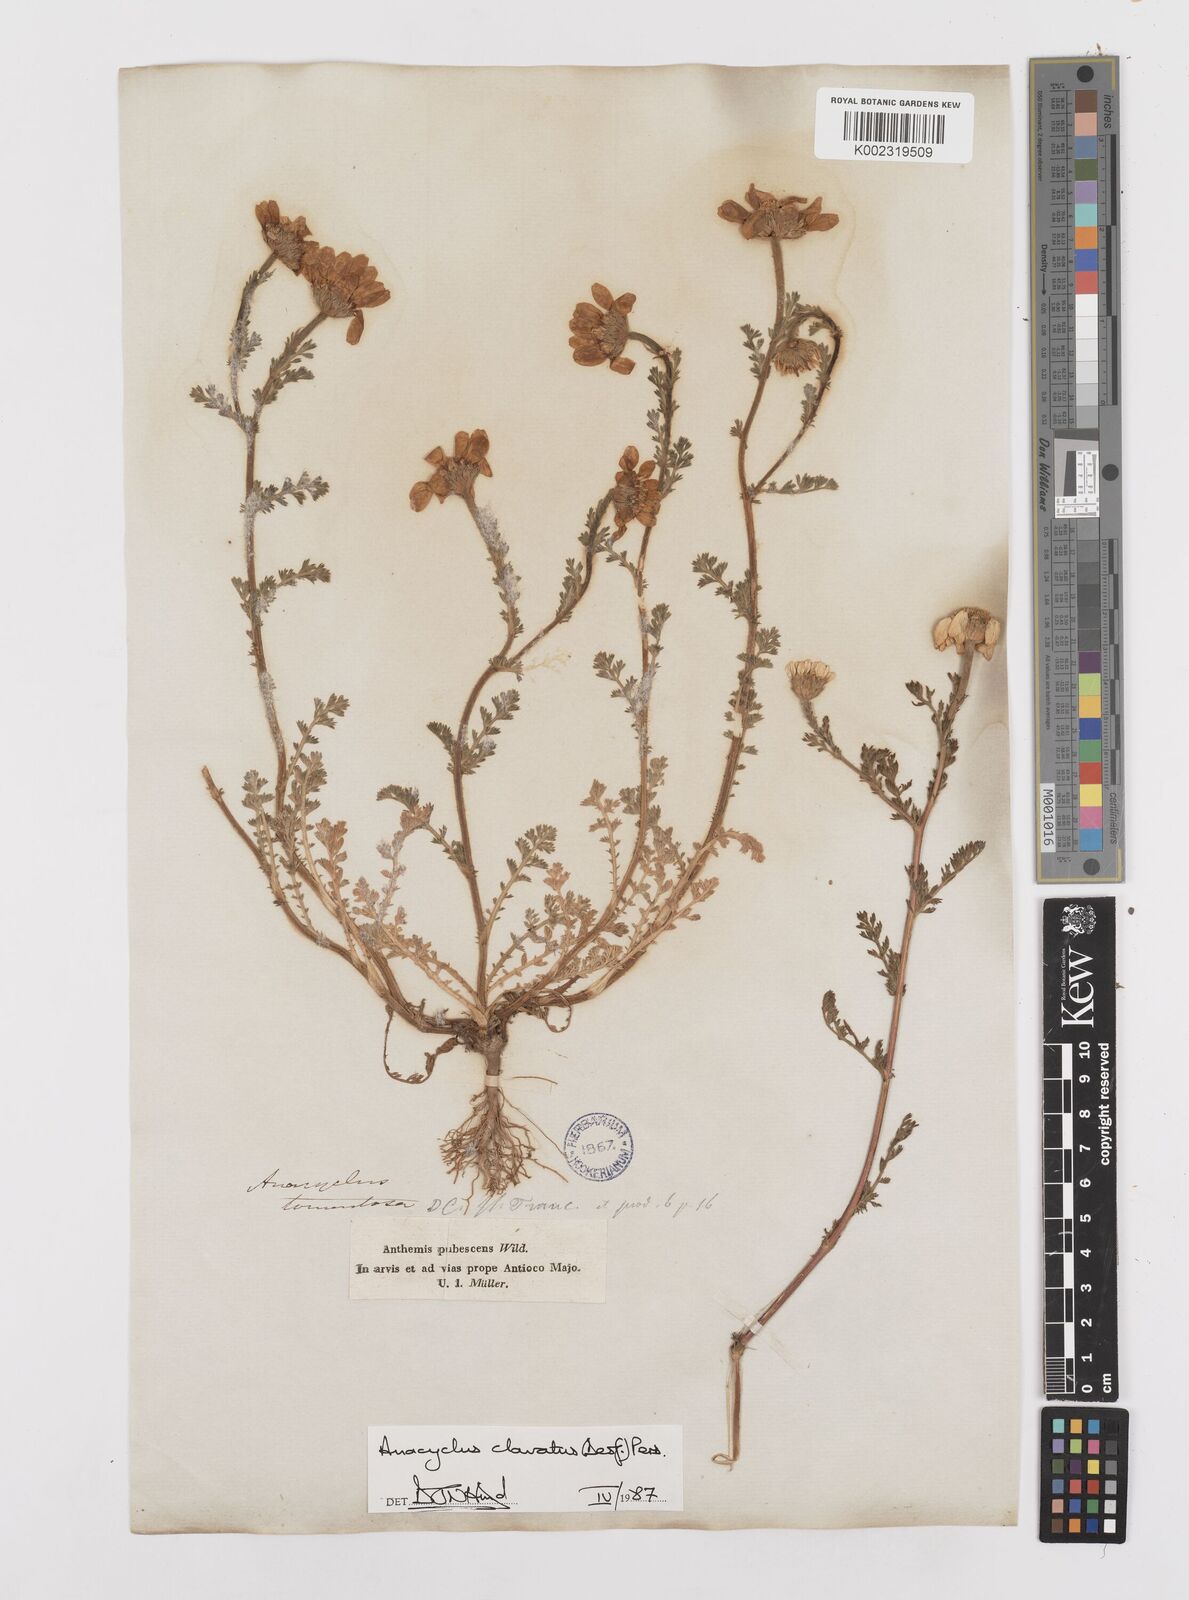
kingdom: Plantae
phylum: Tracheophyta
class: Magnoliopsida
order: Asterales
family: Asteraceae
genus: Anacyclus
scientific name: Anacyclus clavatus
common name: Whitebuttons
